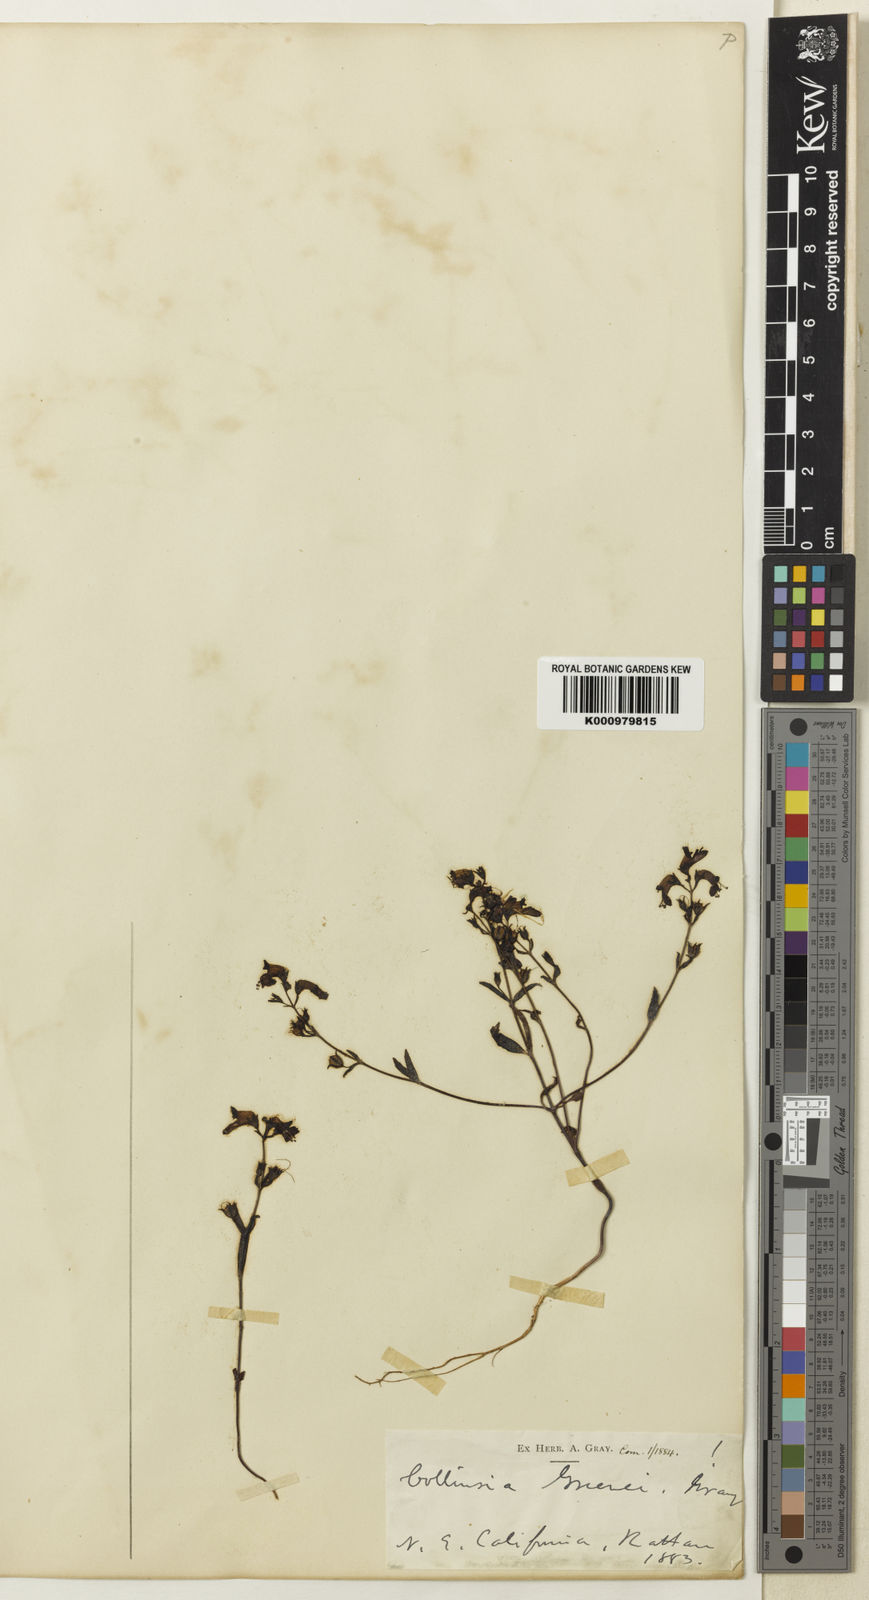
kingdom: Plantae
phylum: Tracheophyta
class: Magnoliopsida
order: Lamiales
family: Plantaginaceae
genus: Collinsia
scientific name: Collinsia greenei
